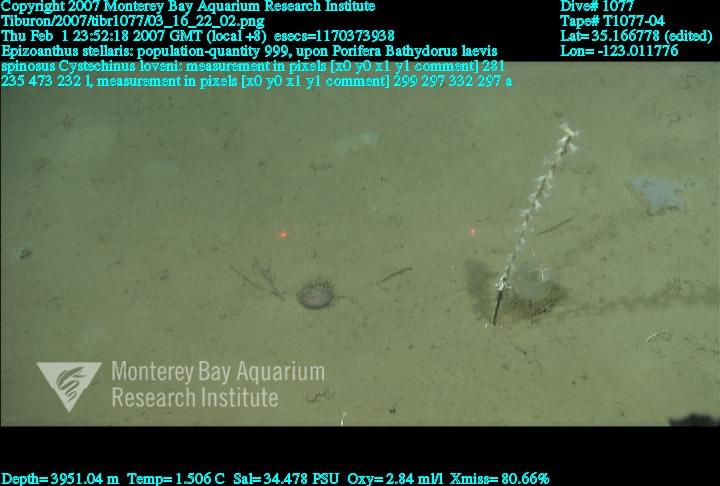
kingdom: Animalia
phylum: Porifera
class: Hexactinellida
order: Lyssacinosida
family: Rossellidae
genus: Bathydorus
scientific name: Bathydorus spinosus
